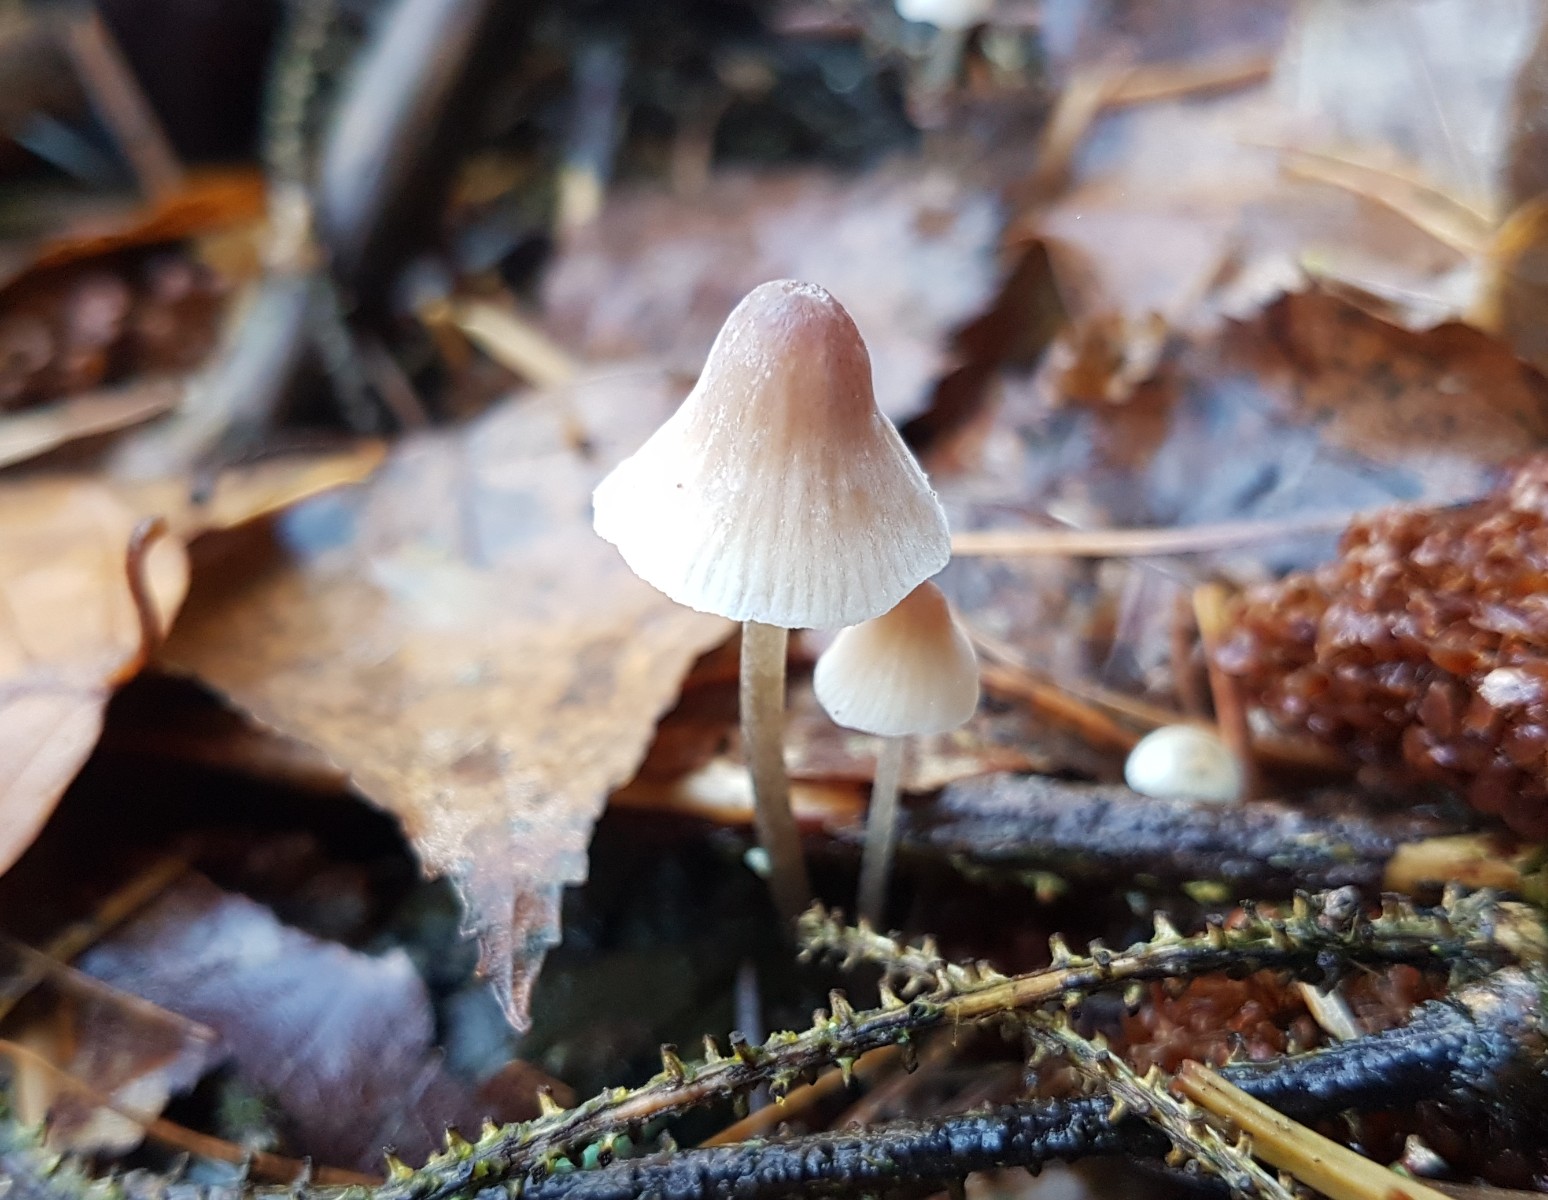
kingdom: Fungi
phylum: Basidiomycota
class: Agaricomycetes
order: Agaricales
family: Mycenaceae
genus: Mycena
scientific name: Mycena metata
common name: rødlig huesvamp
